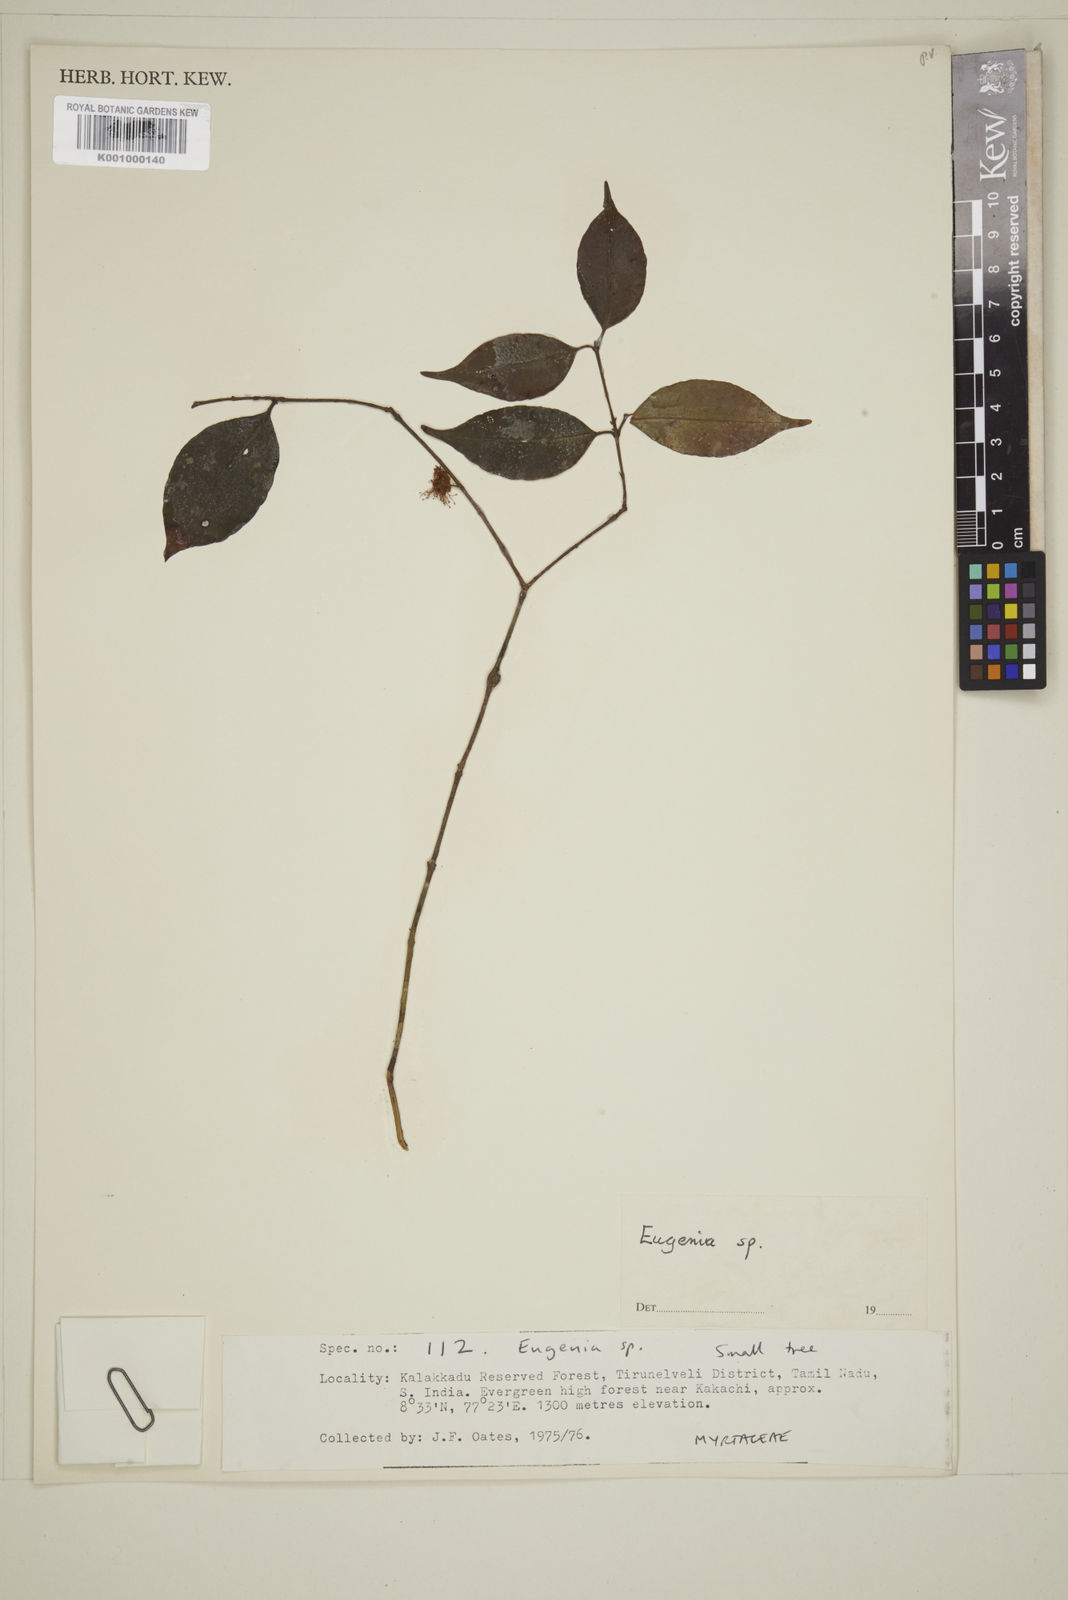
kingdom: Plantae
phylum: Tracheophyta
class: Magnoliopsida
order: Myrtales
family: Myrtaceae
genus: Eugenia
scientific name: Eugenia
